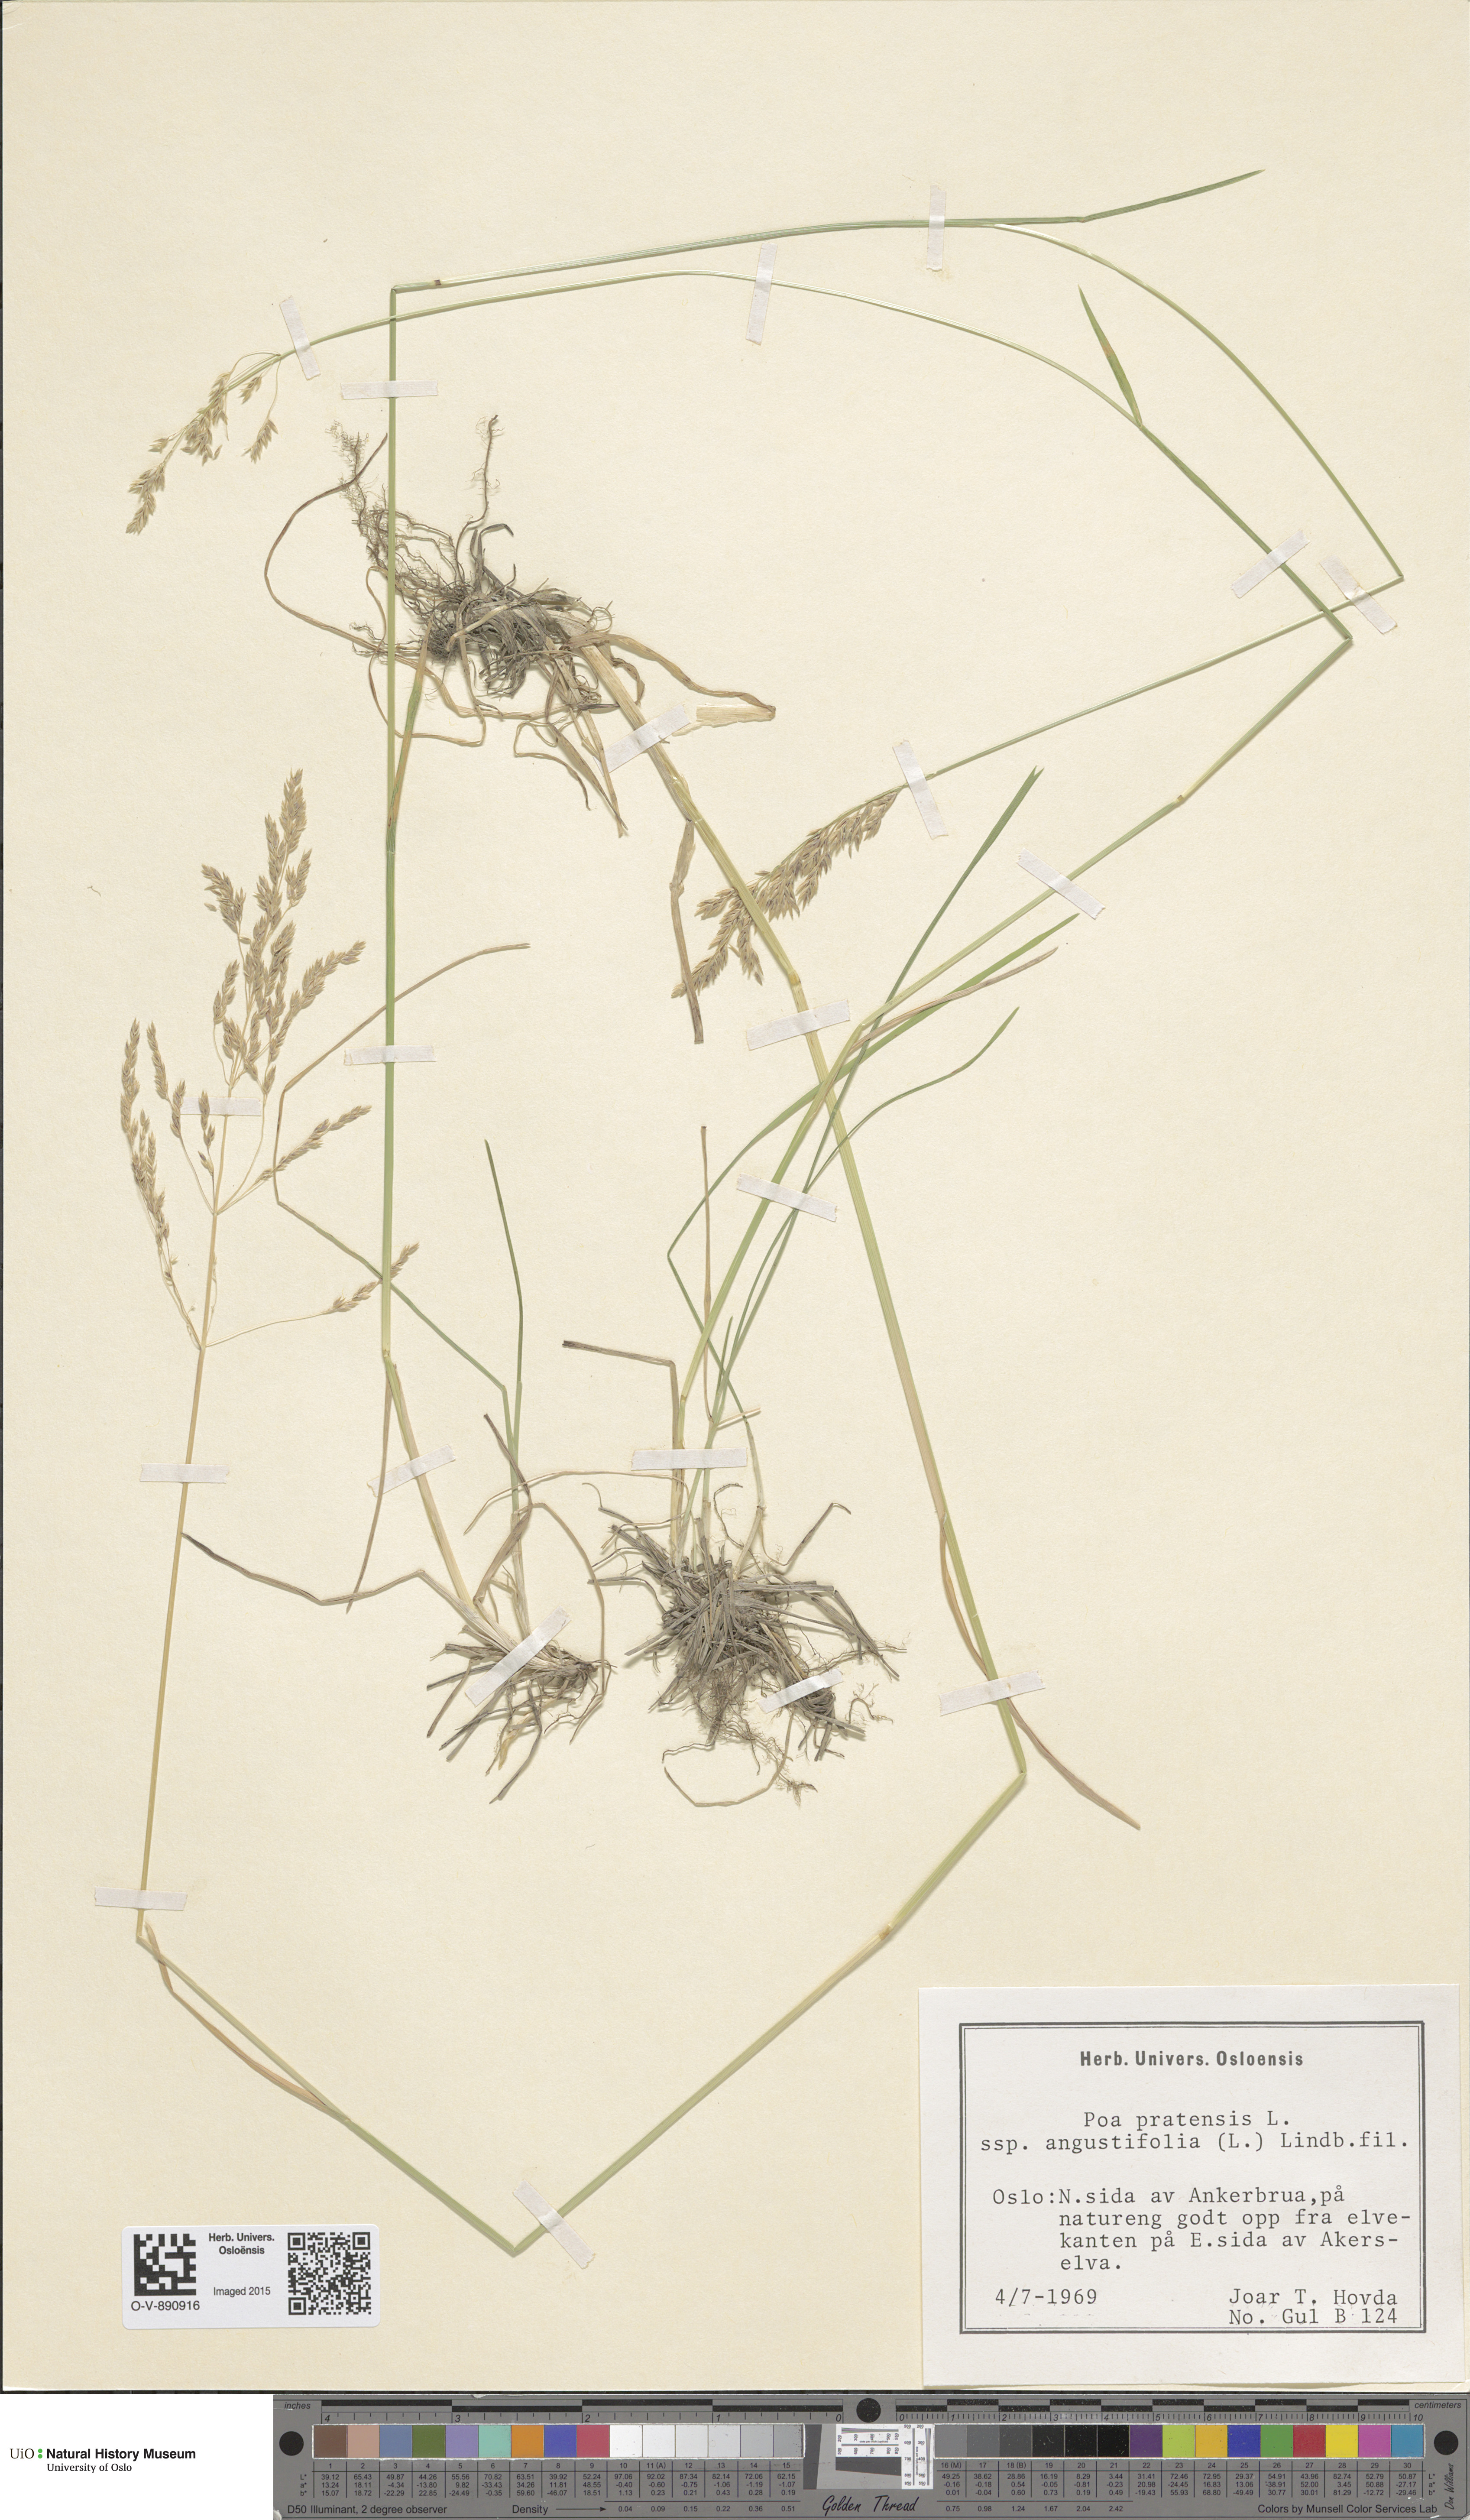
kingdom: Plantae
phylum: Tracheophyta
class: Liliopsida
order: Poales
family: Poaceae
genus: Poa
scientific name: Poa angustifolia
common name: Narrow-leaved meadow-grass
